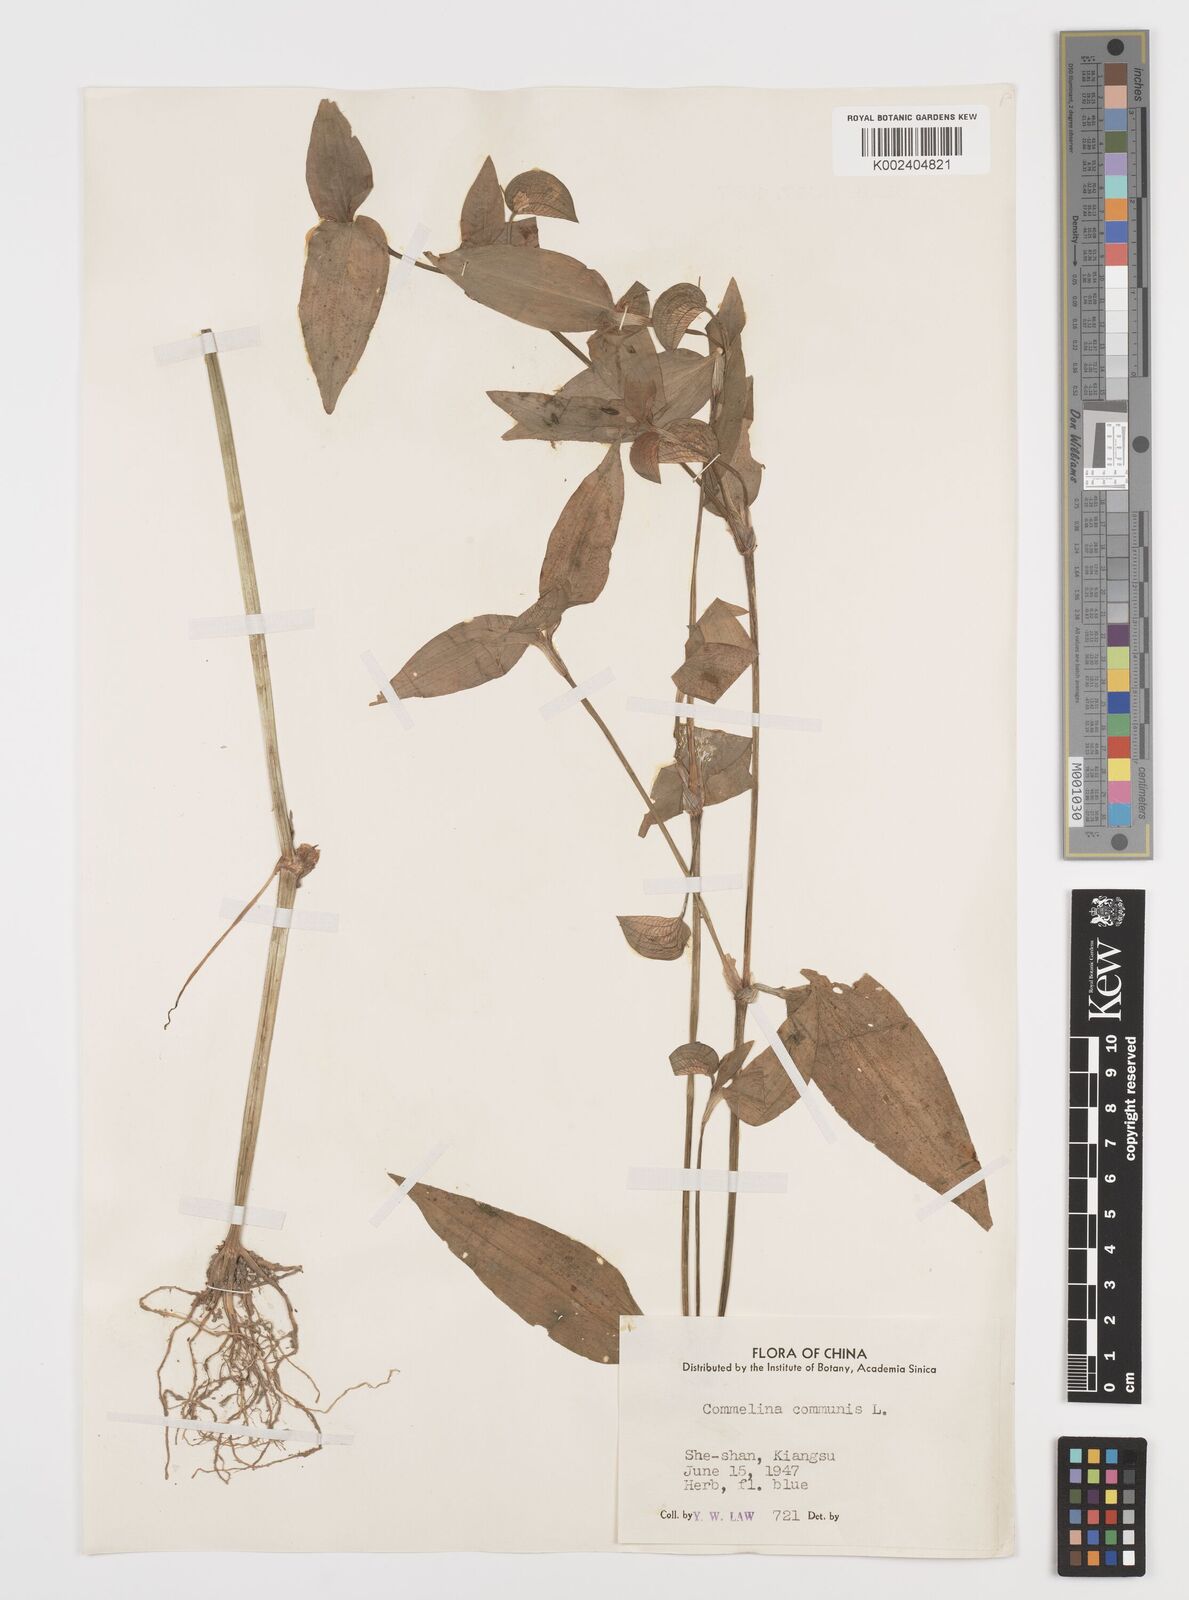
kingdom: Plantae
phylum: Tracheophyta
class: Liliopsida
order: Commelinales
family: Commelinaceae
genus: Commelina
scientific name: Commelina communis
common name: Asiatic dayflower
